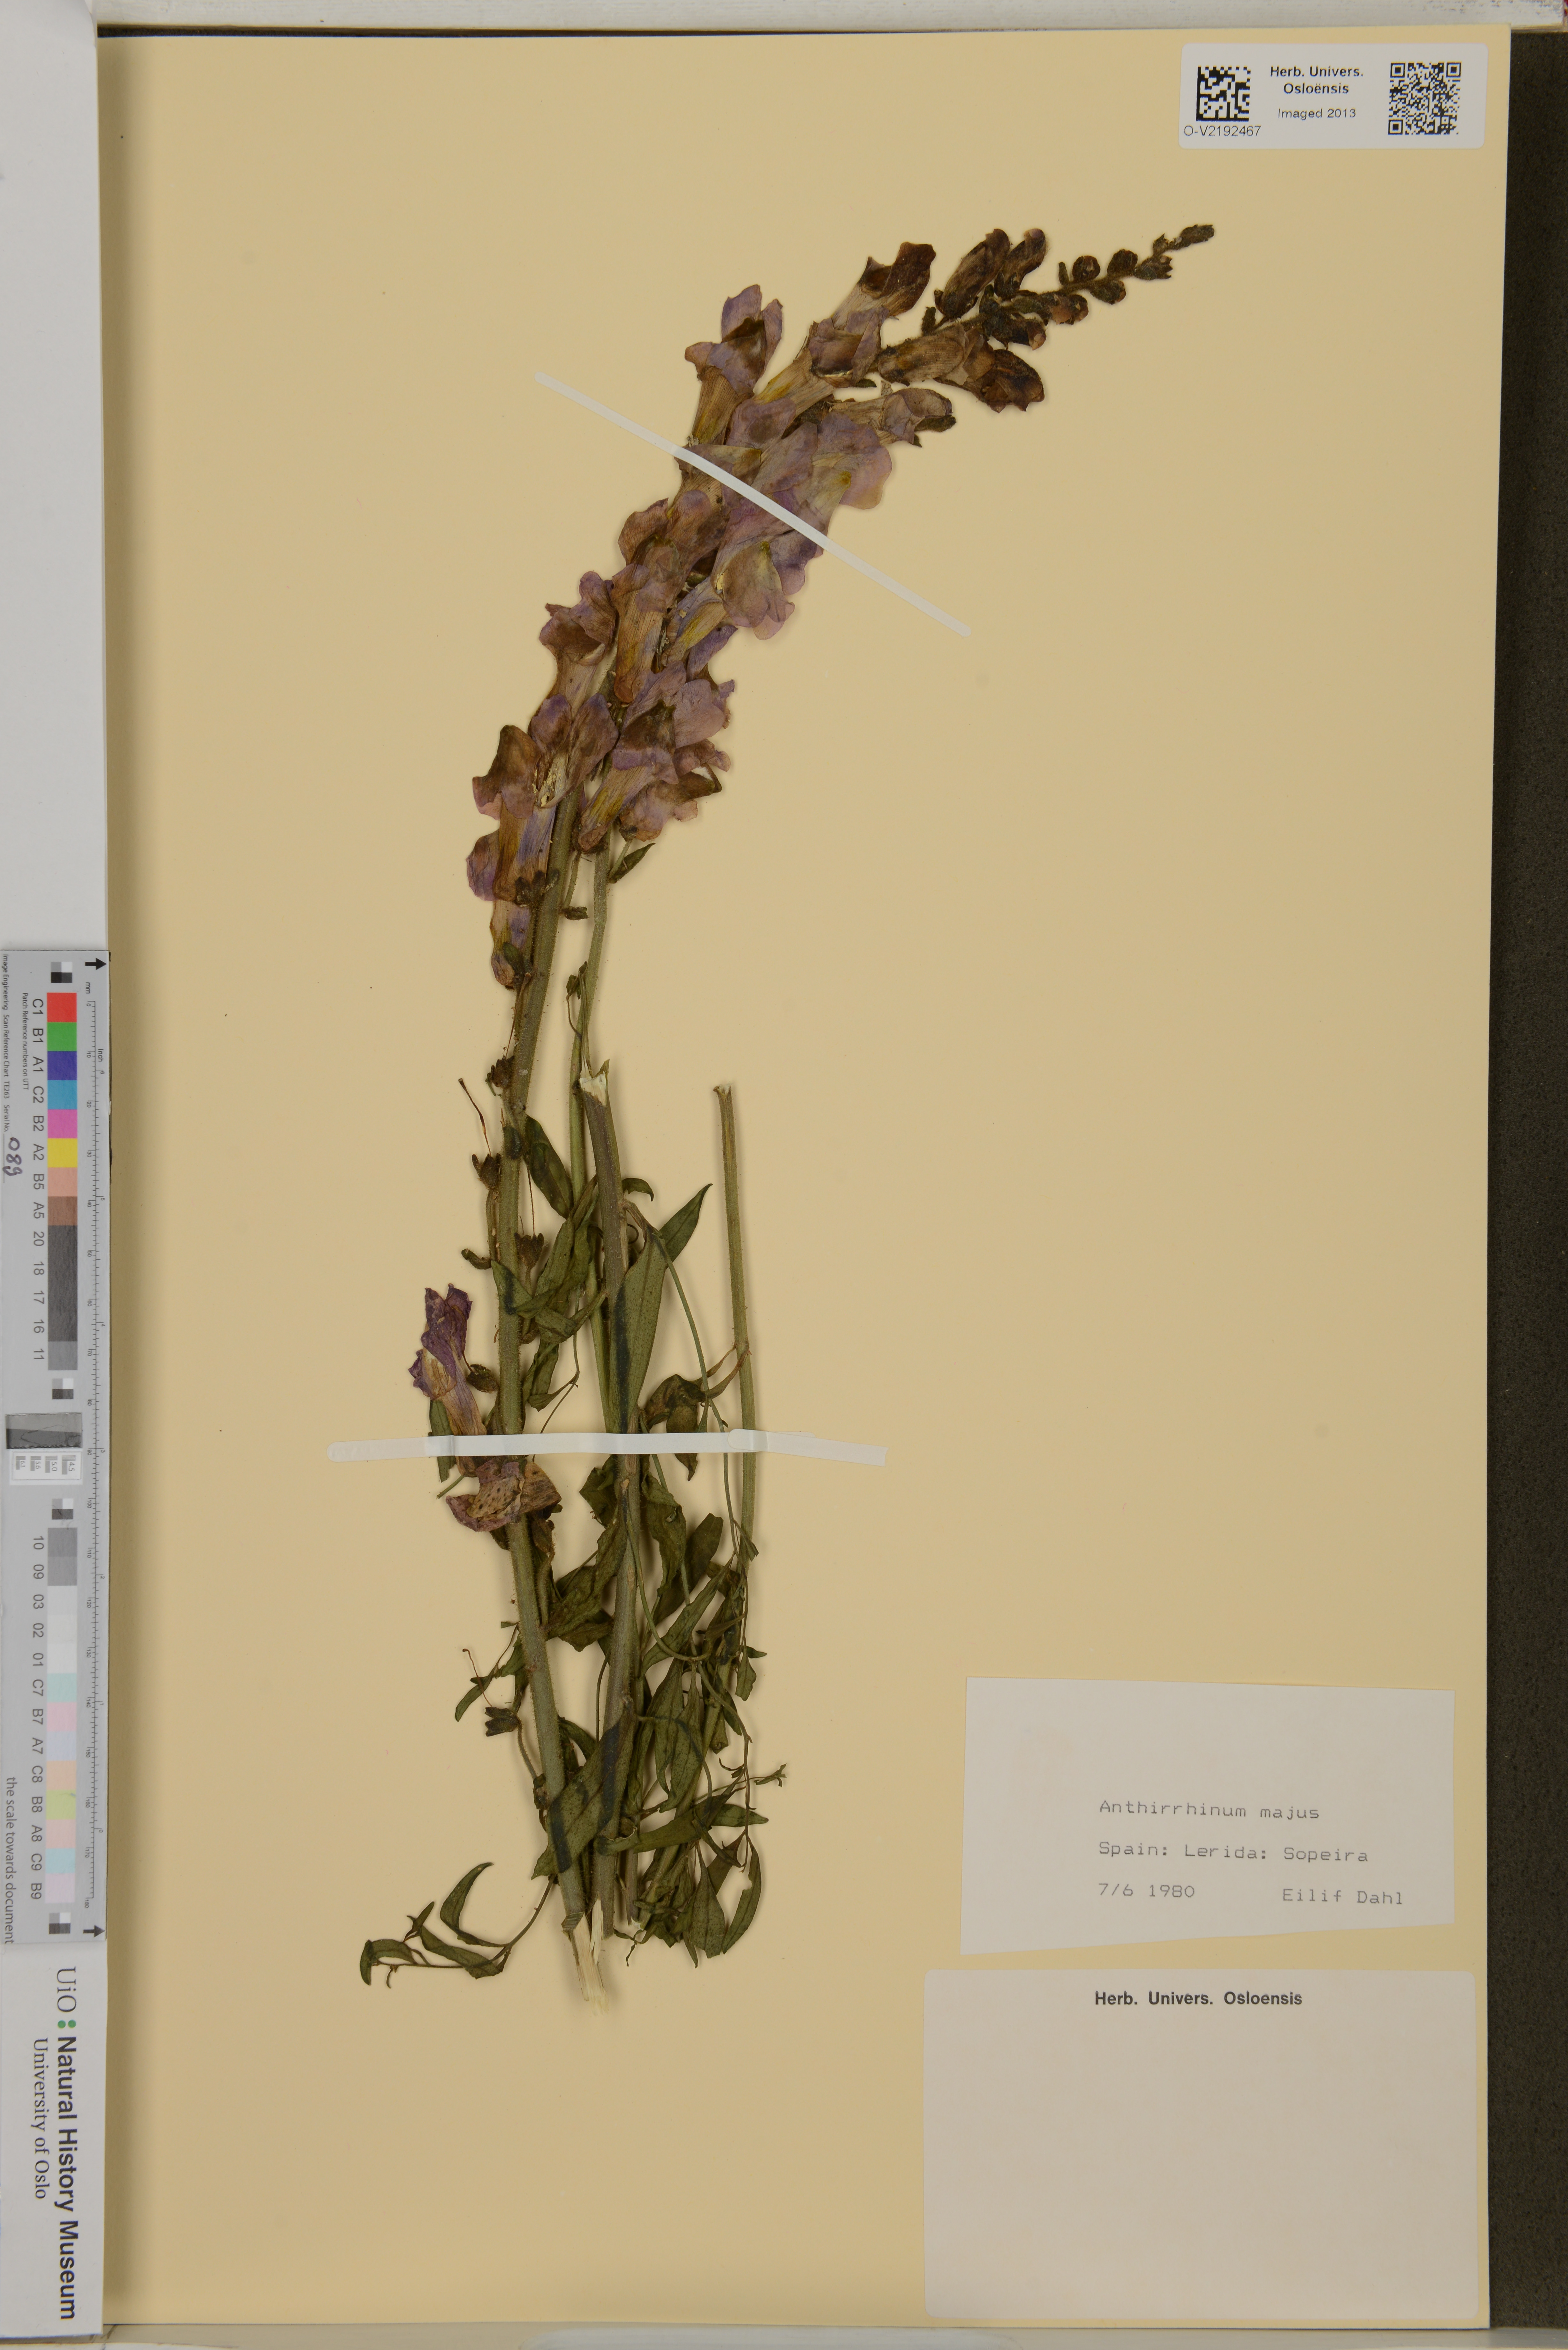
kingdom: Plantae
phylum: Tracheophyta
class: Magnoliopsida
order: Lamiales
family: Plantaginaceae
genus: Antirrhinum
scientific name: Antirrhinum majus
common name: Snapdragon
